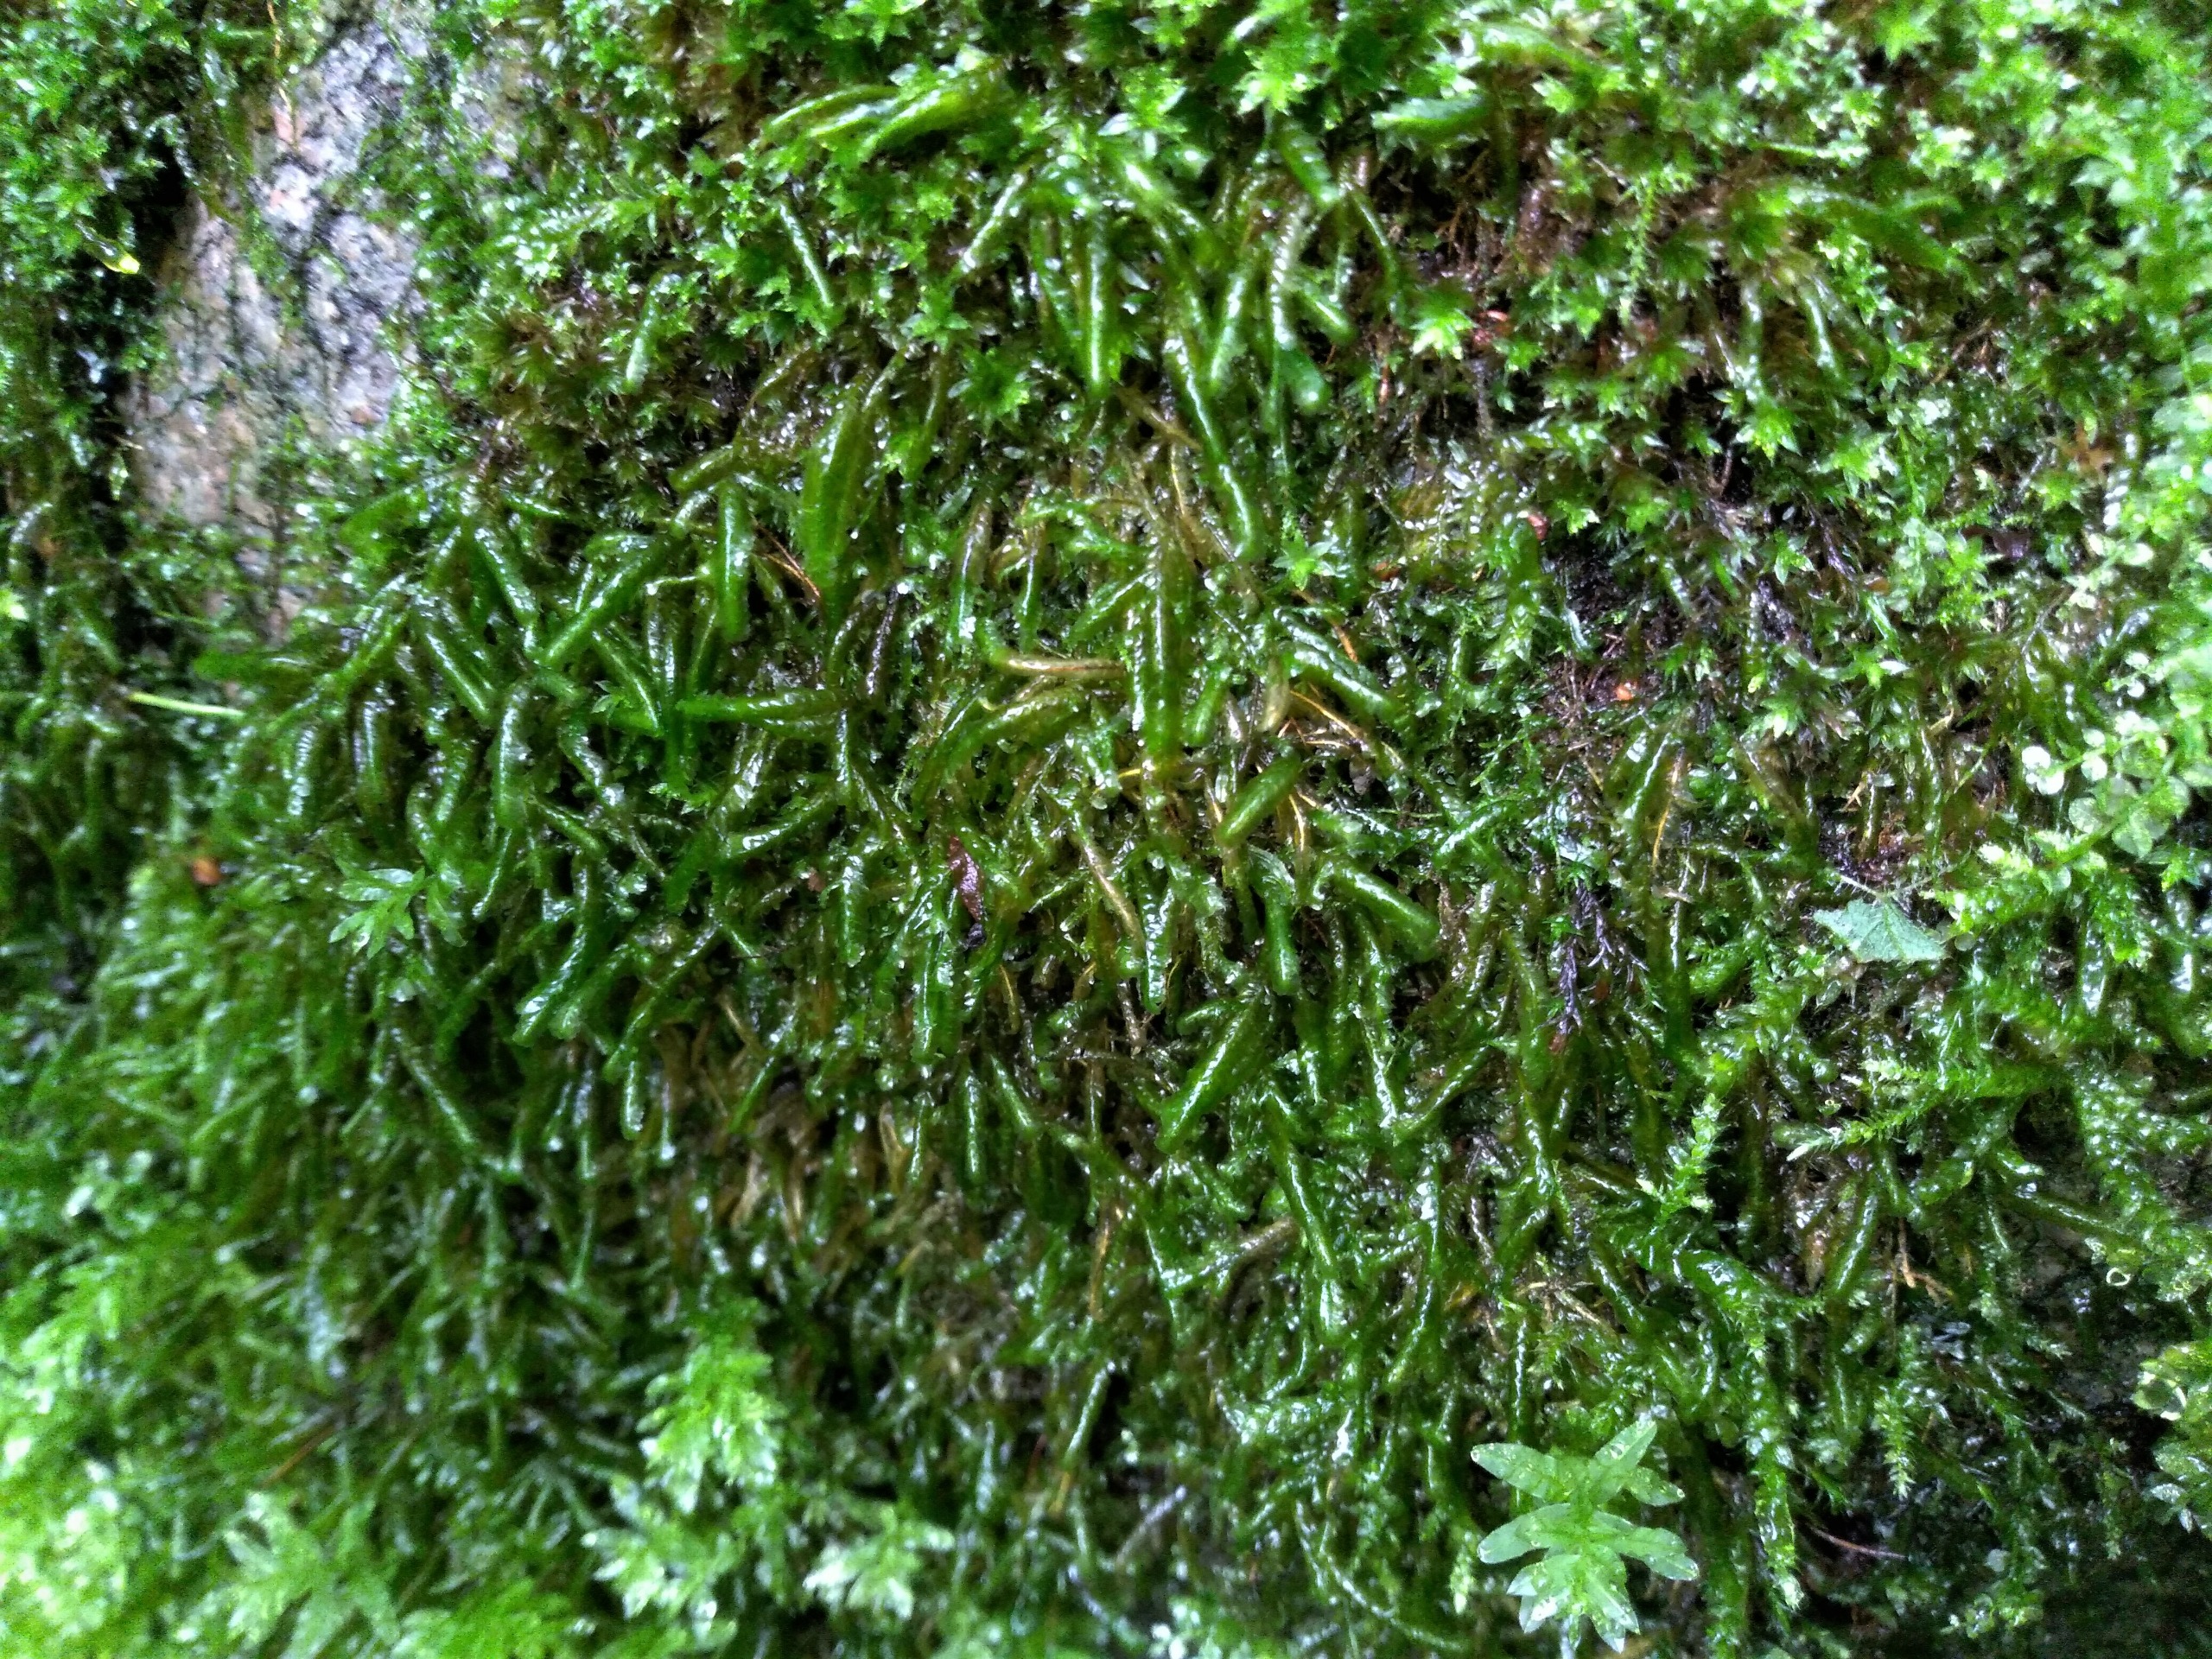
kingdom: Plantae
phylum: Bryophyta
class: Bryopsida
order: Hypnales
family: Neckeraceae
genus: Homalia
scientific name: Homalia trichomanoides
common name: Skov-tungemos
